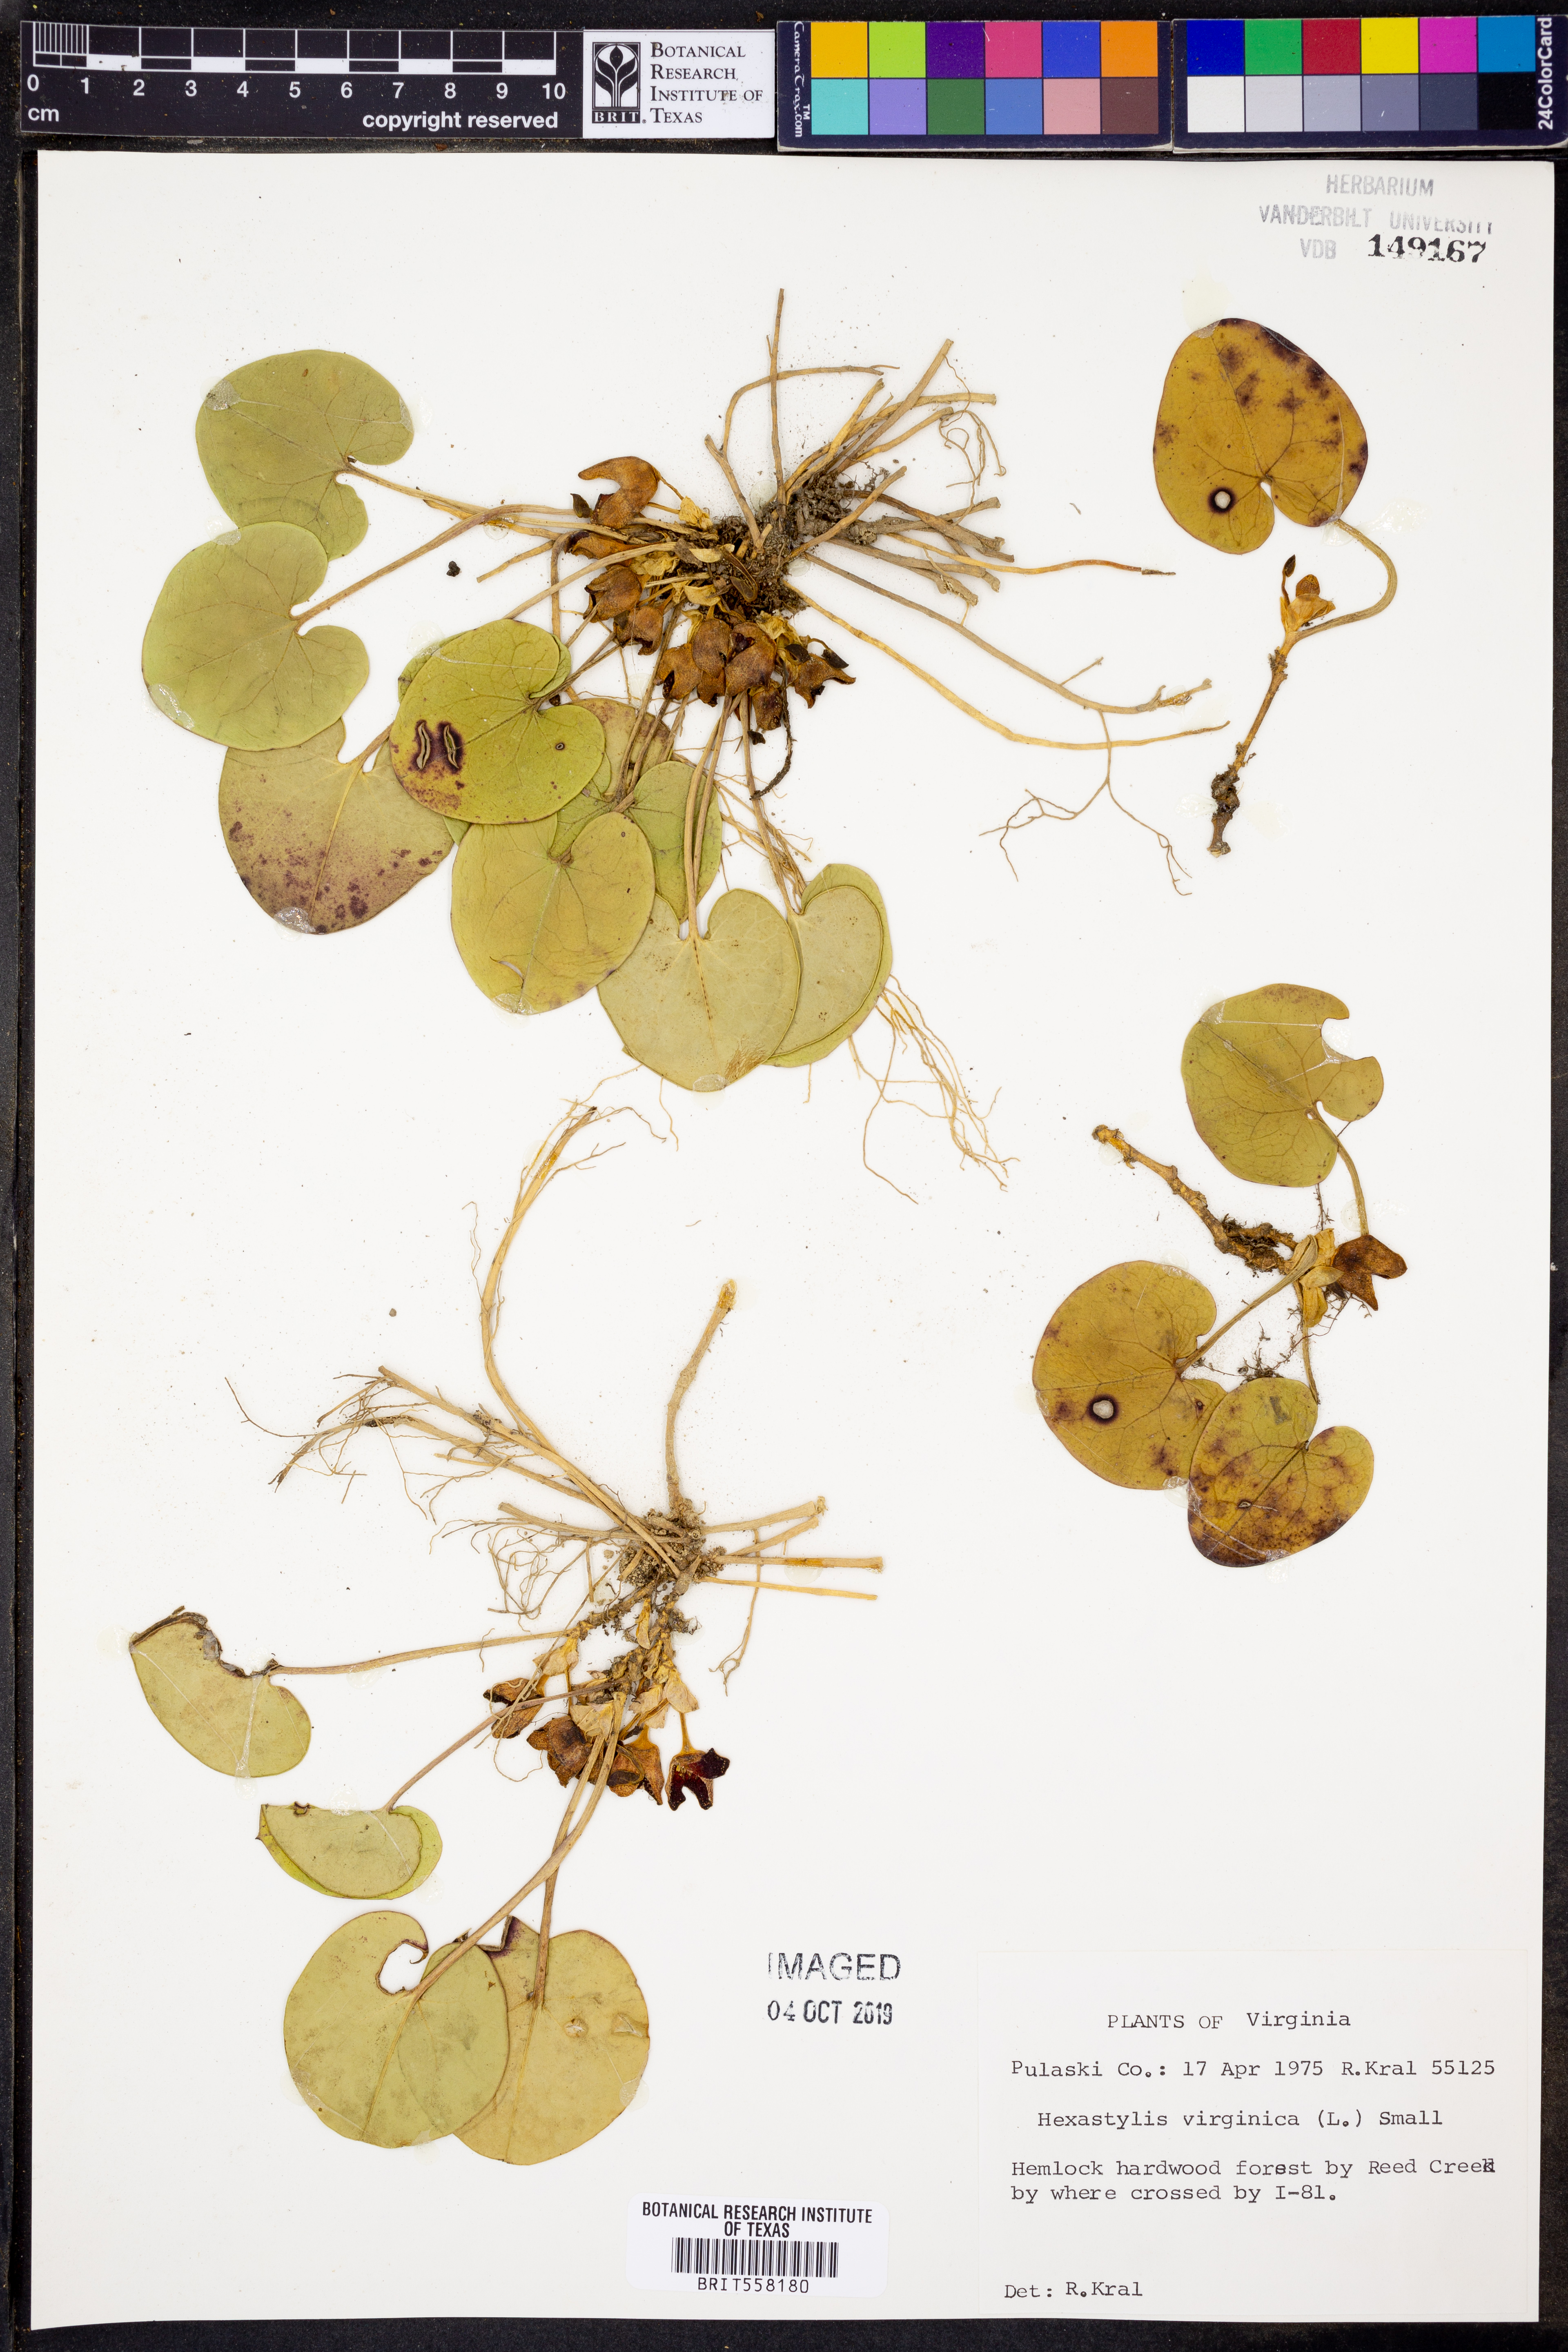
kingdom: Plantae
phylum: Tracheophyta
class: Magnoliopsida
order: Piperales
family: Aristolochiaceae
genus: Hexastylis
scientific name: Hexastylis virginica
